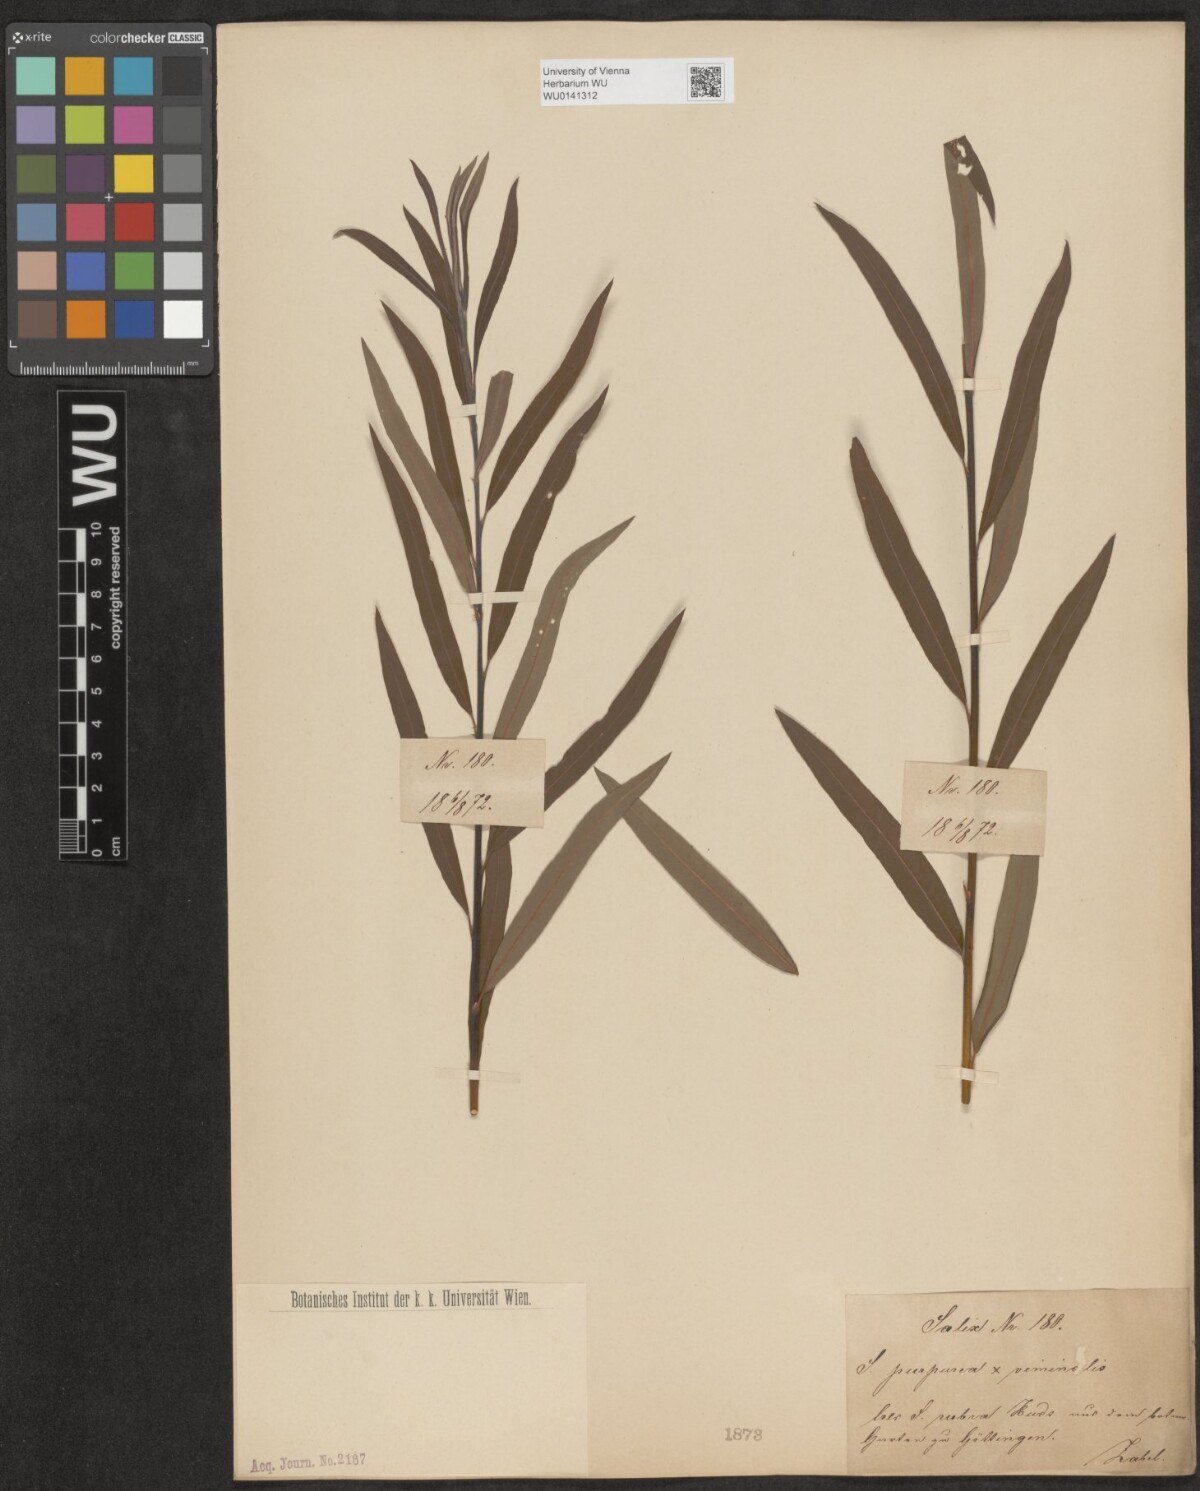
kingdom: Plantae
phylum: Tracheophyta
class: Magnoliopsida
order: Malpighiales
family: Salicaceae
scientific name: Salicaceae
